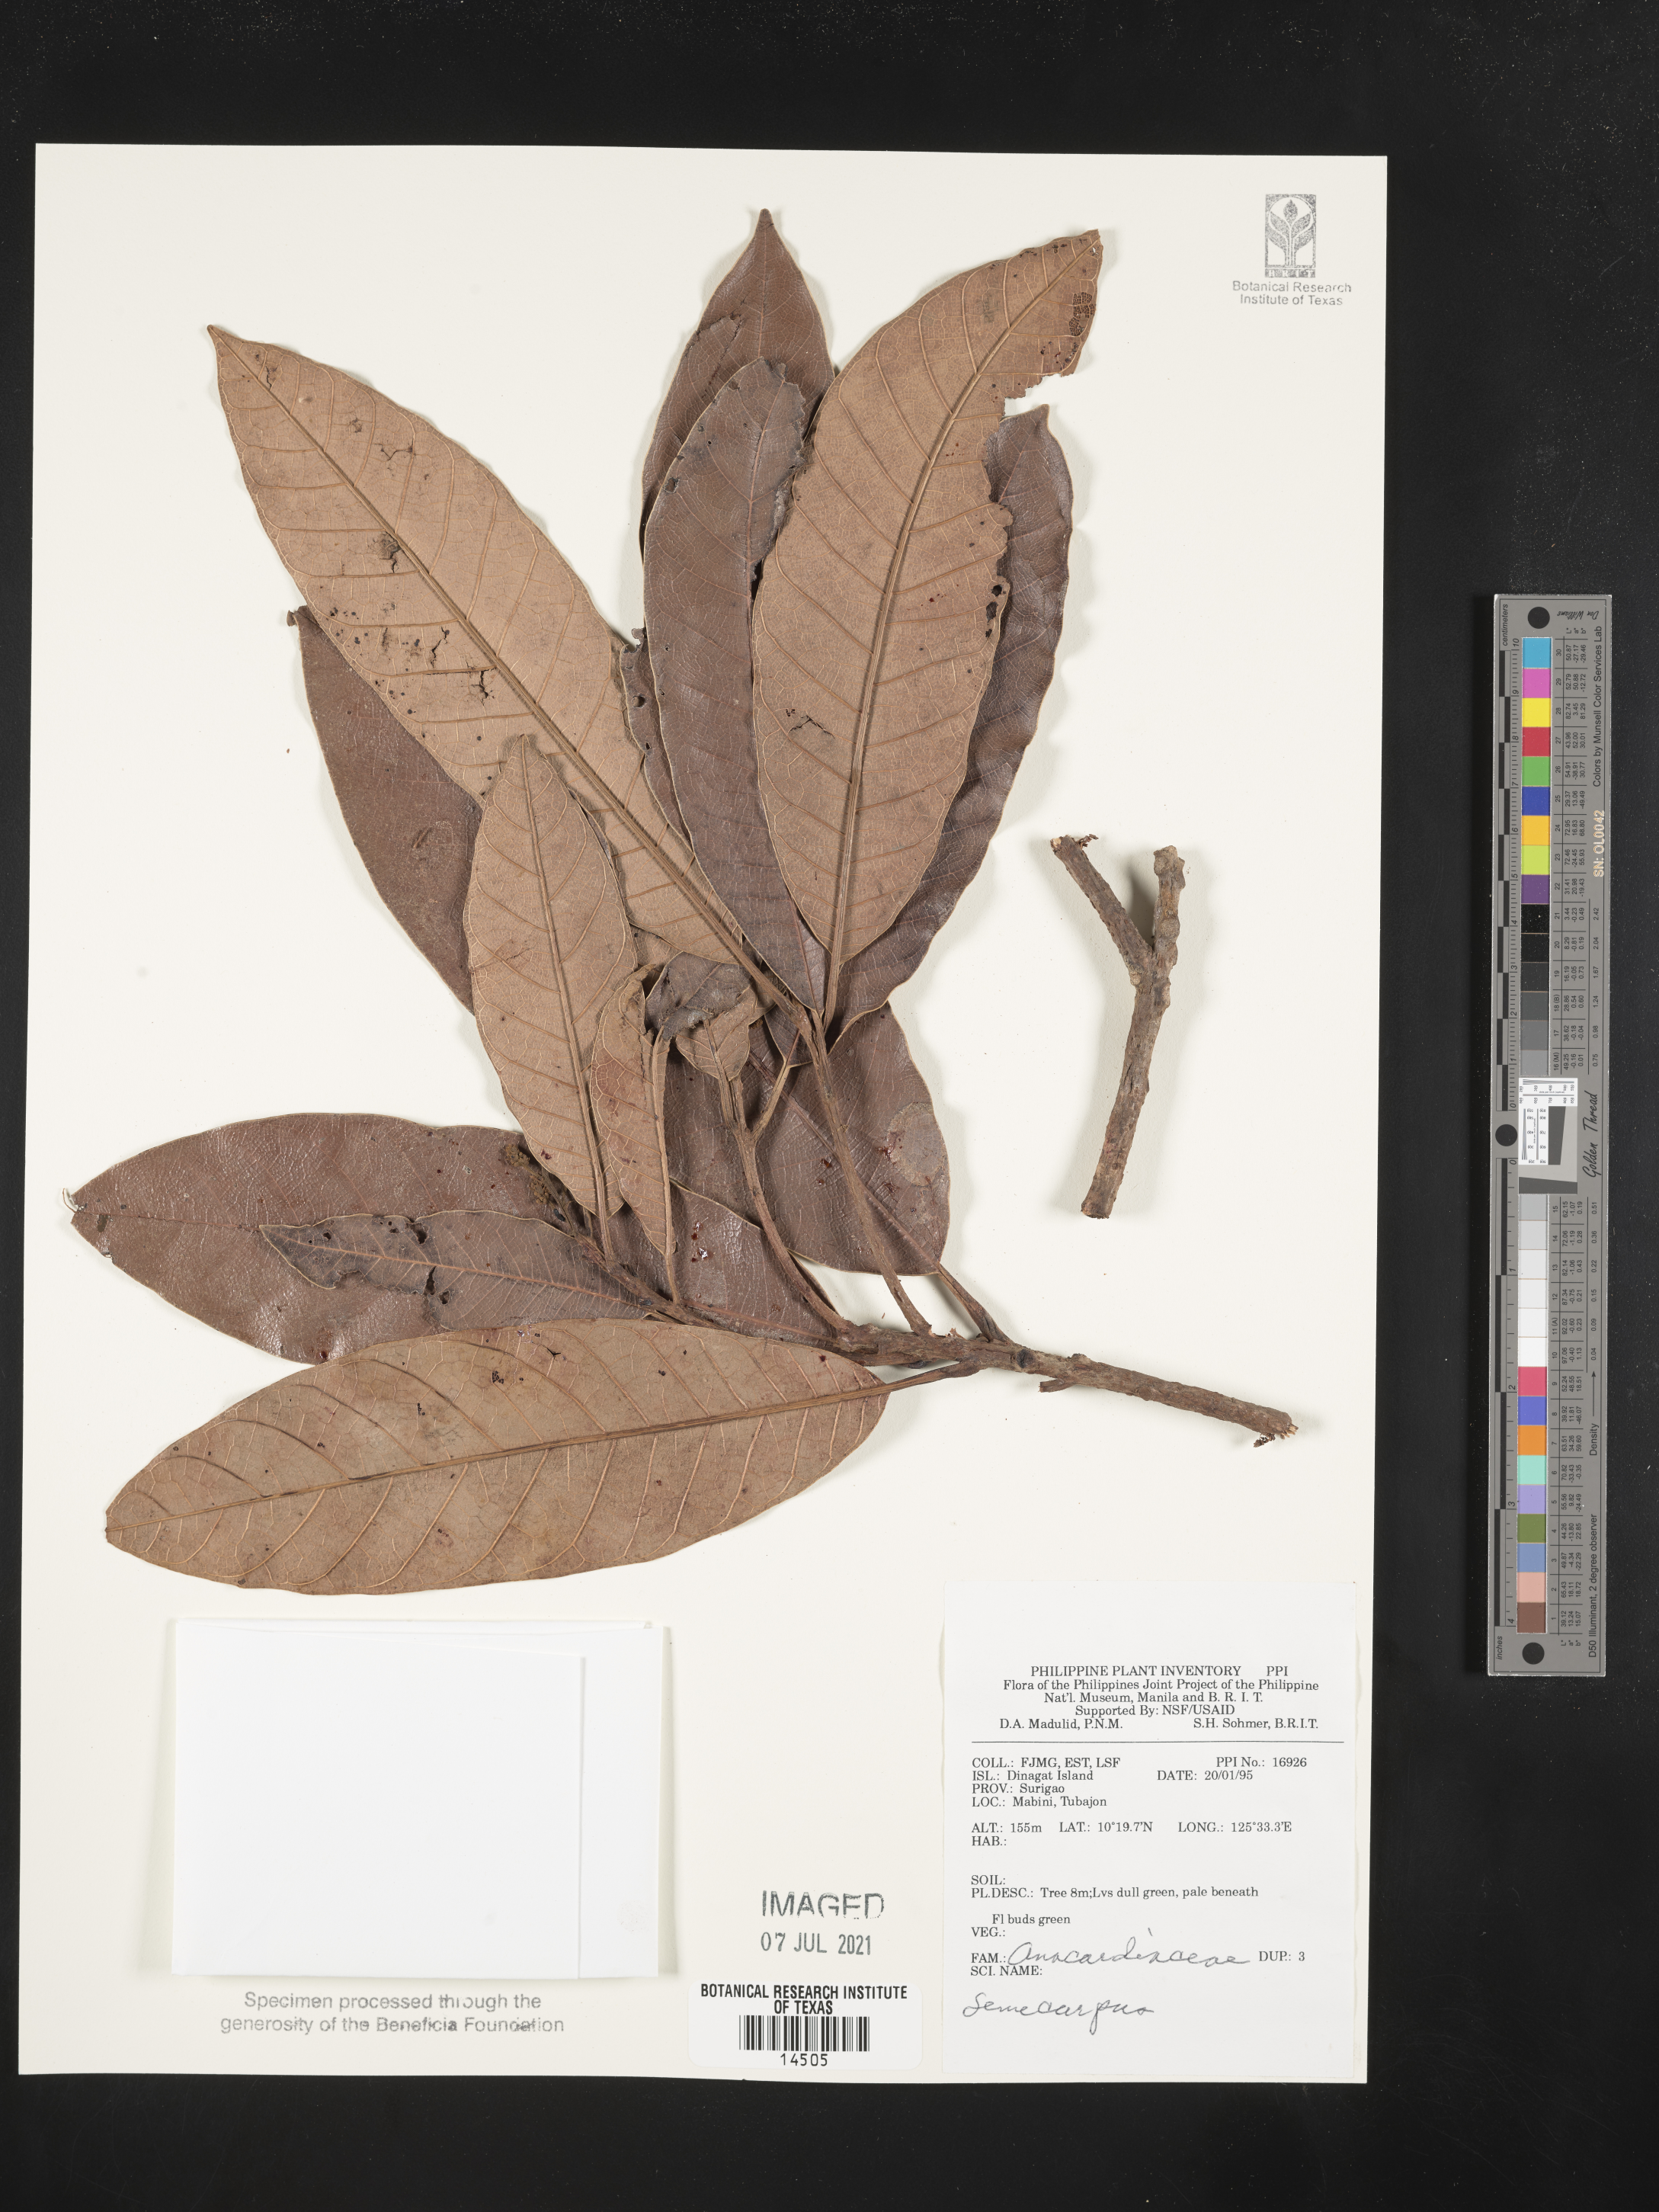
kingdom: Plantae
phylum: Tracheophyta
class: Magnoliopsida
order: Sapindales
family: Anacardiaceae
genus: Semecarpus
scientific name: Semecarpus
